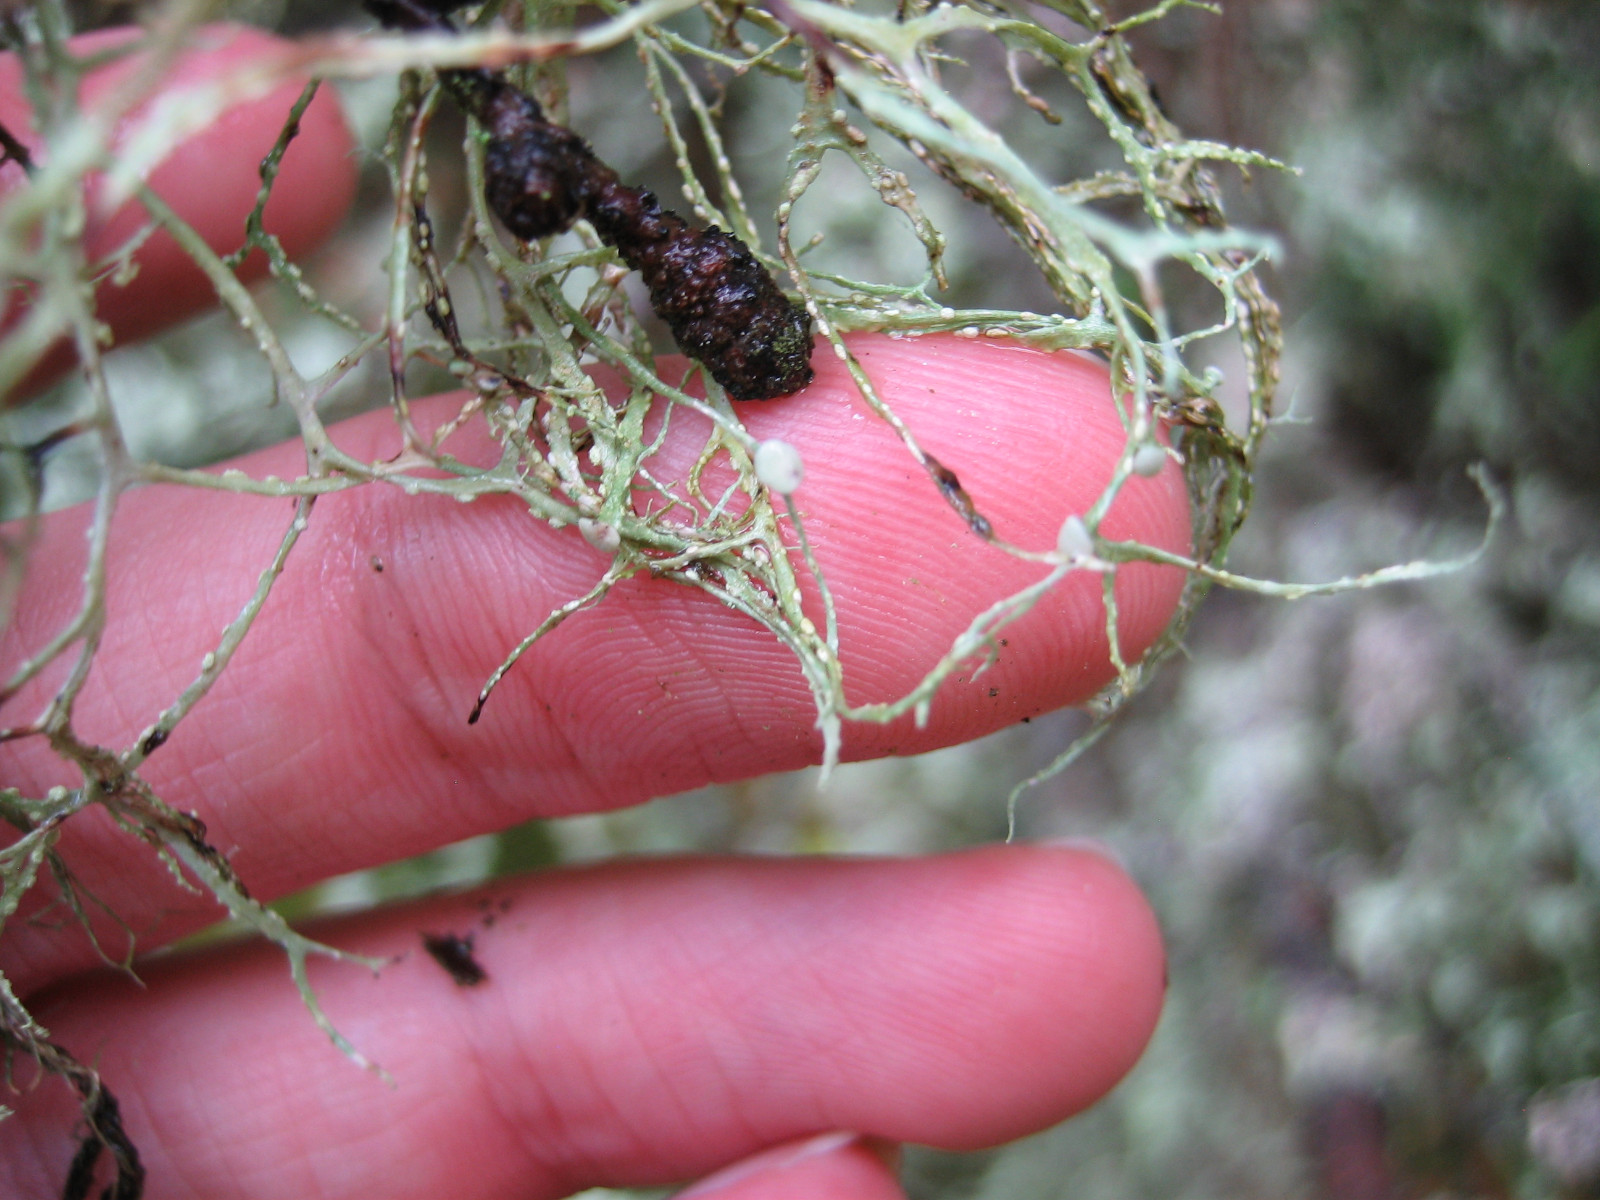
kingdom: Fungi
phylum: Ascomycota
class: Lecanoromycetes
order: Lecanorales
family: Ramalinaceae
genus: Ramalina
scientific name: Ramalina farinacea
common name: melet grenlav
